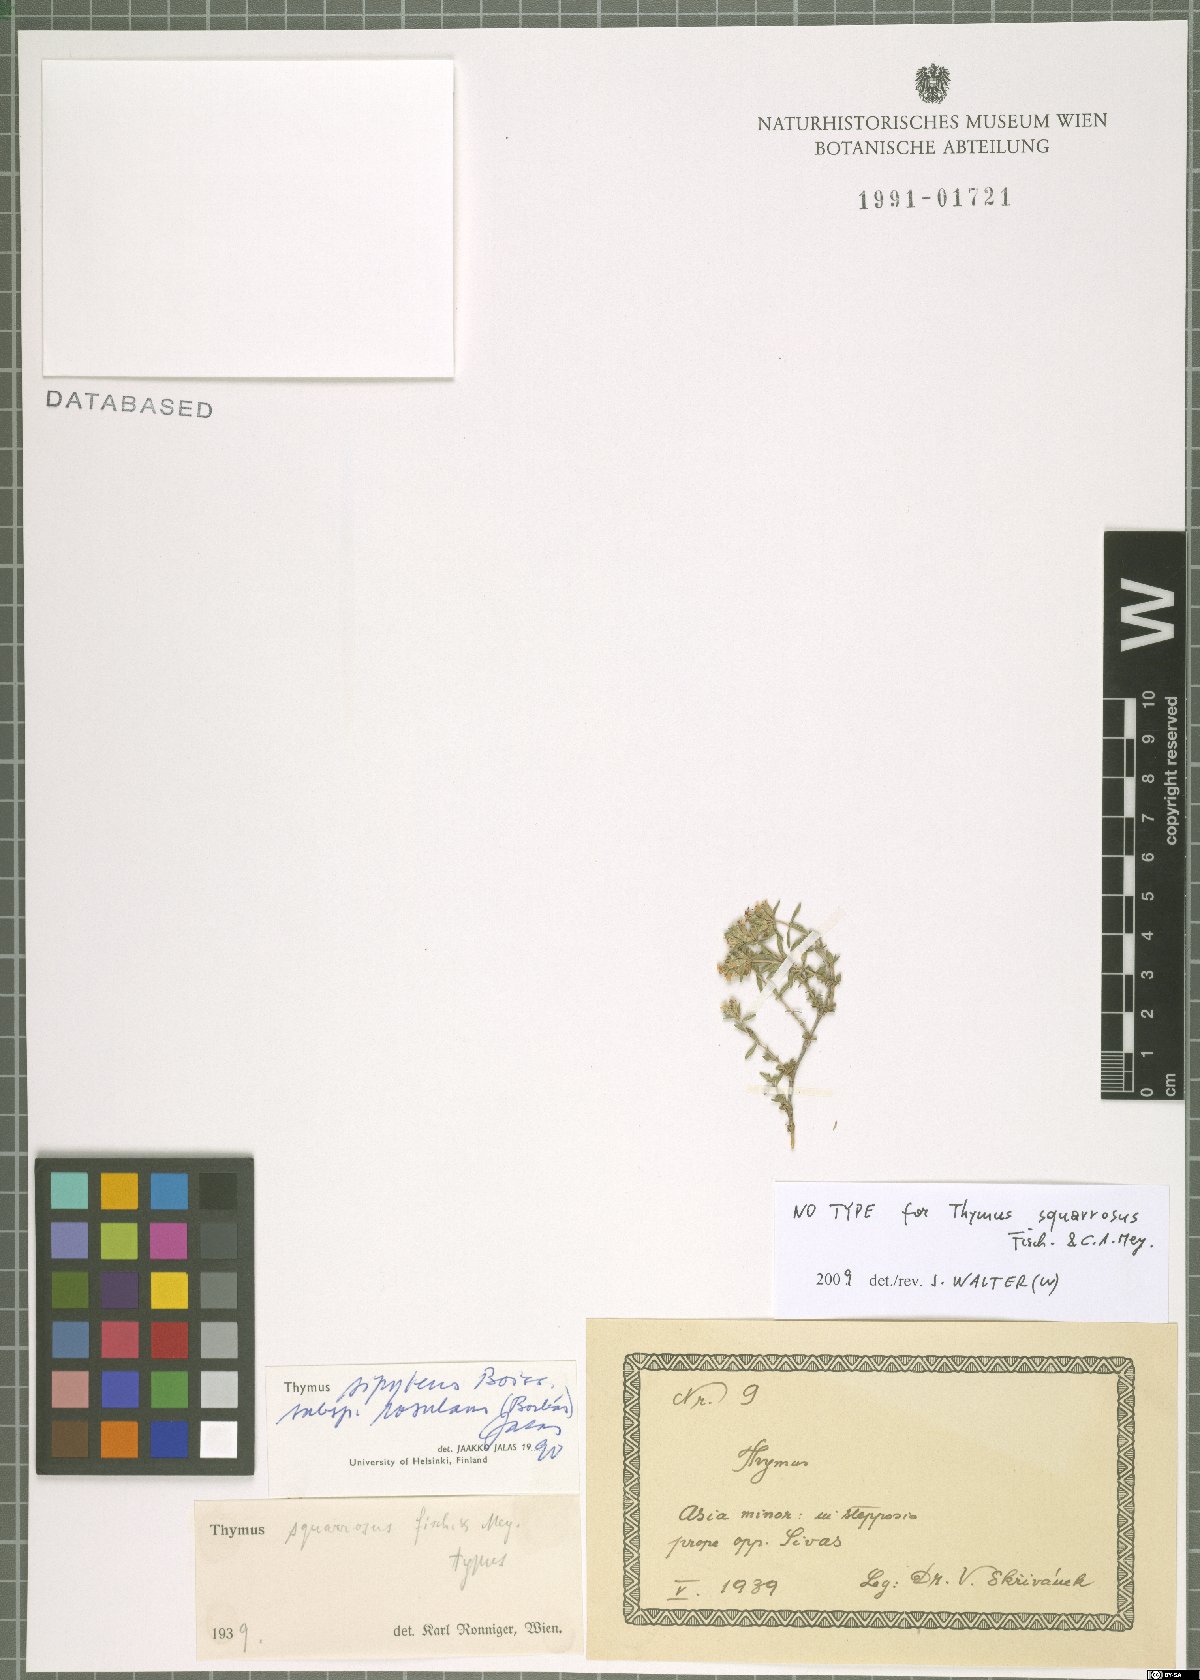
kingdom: Plantae
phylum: Tracheophyta
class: Magnoliopsida
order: Lamiales
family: Lamiaceae
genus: Thymus
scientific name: Thymus sipyleus
